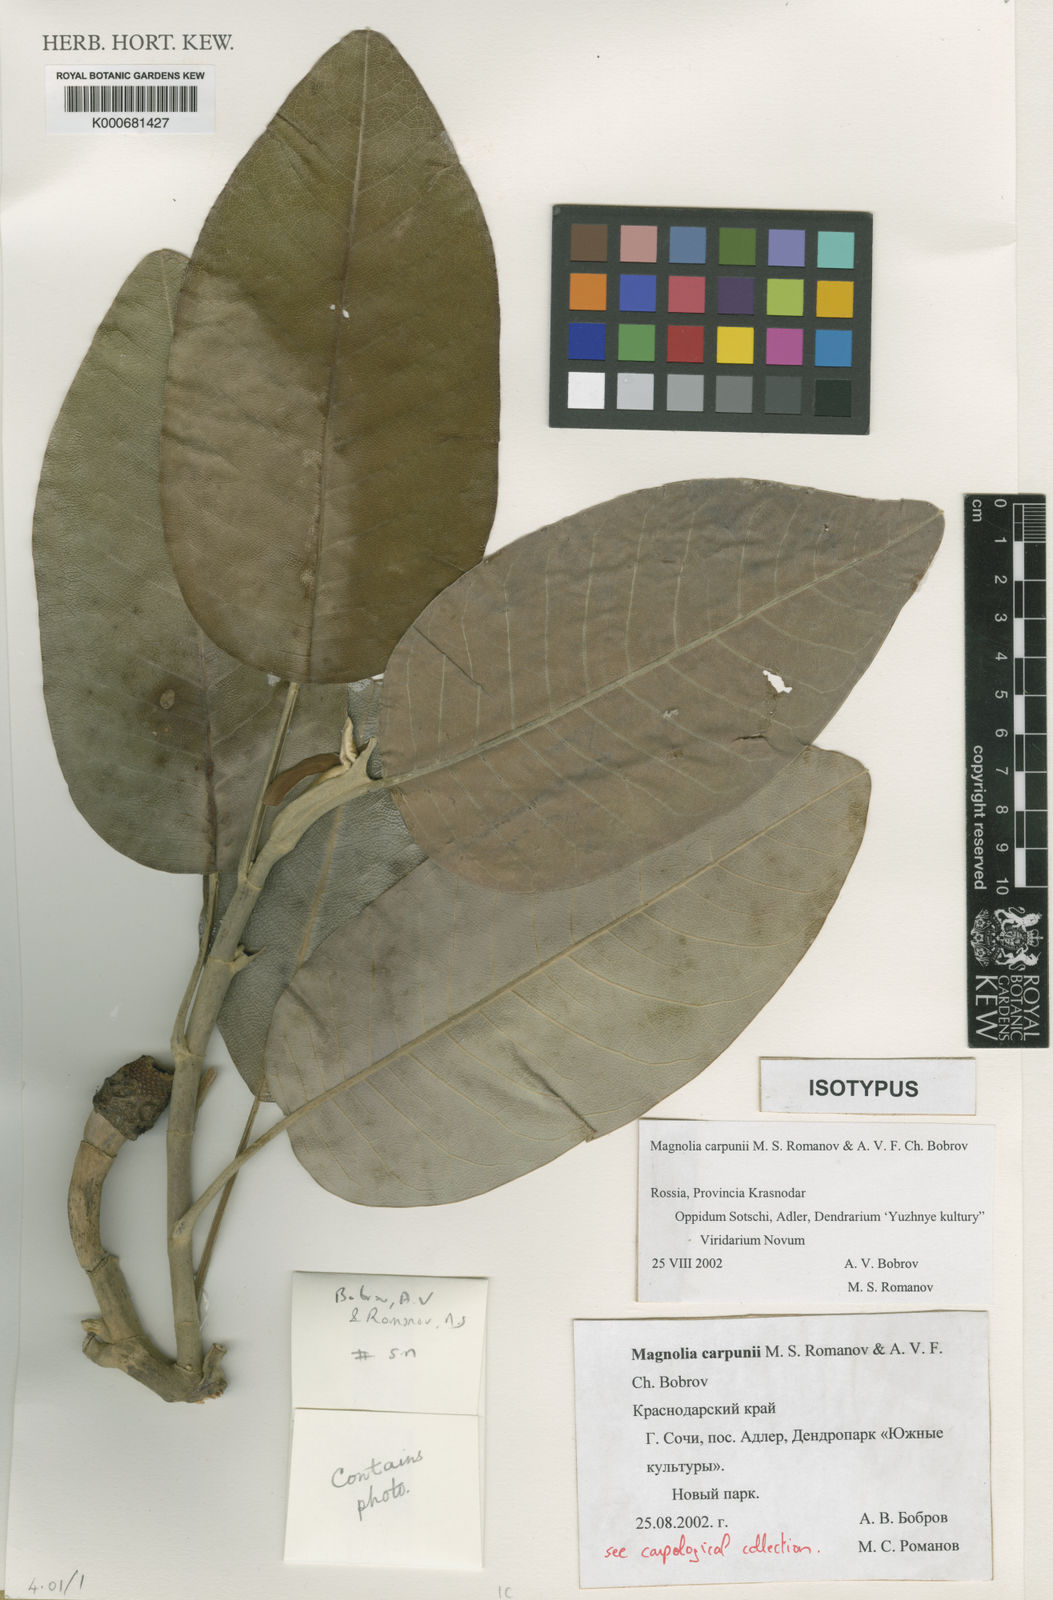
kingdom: Plantae
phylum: Tracheophyta
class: Magnoliopsida
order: Magnoliales
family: Magnoliaceae
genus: Magnolia
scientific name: Magnolia delavayi
